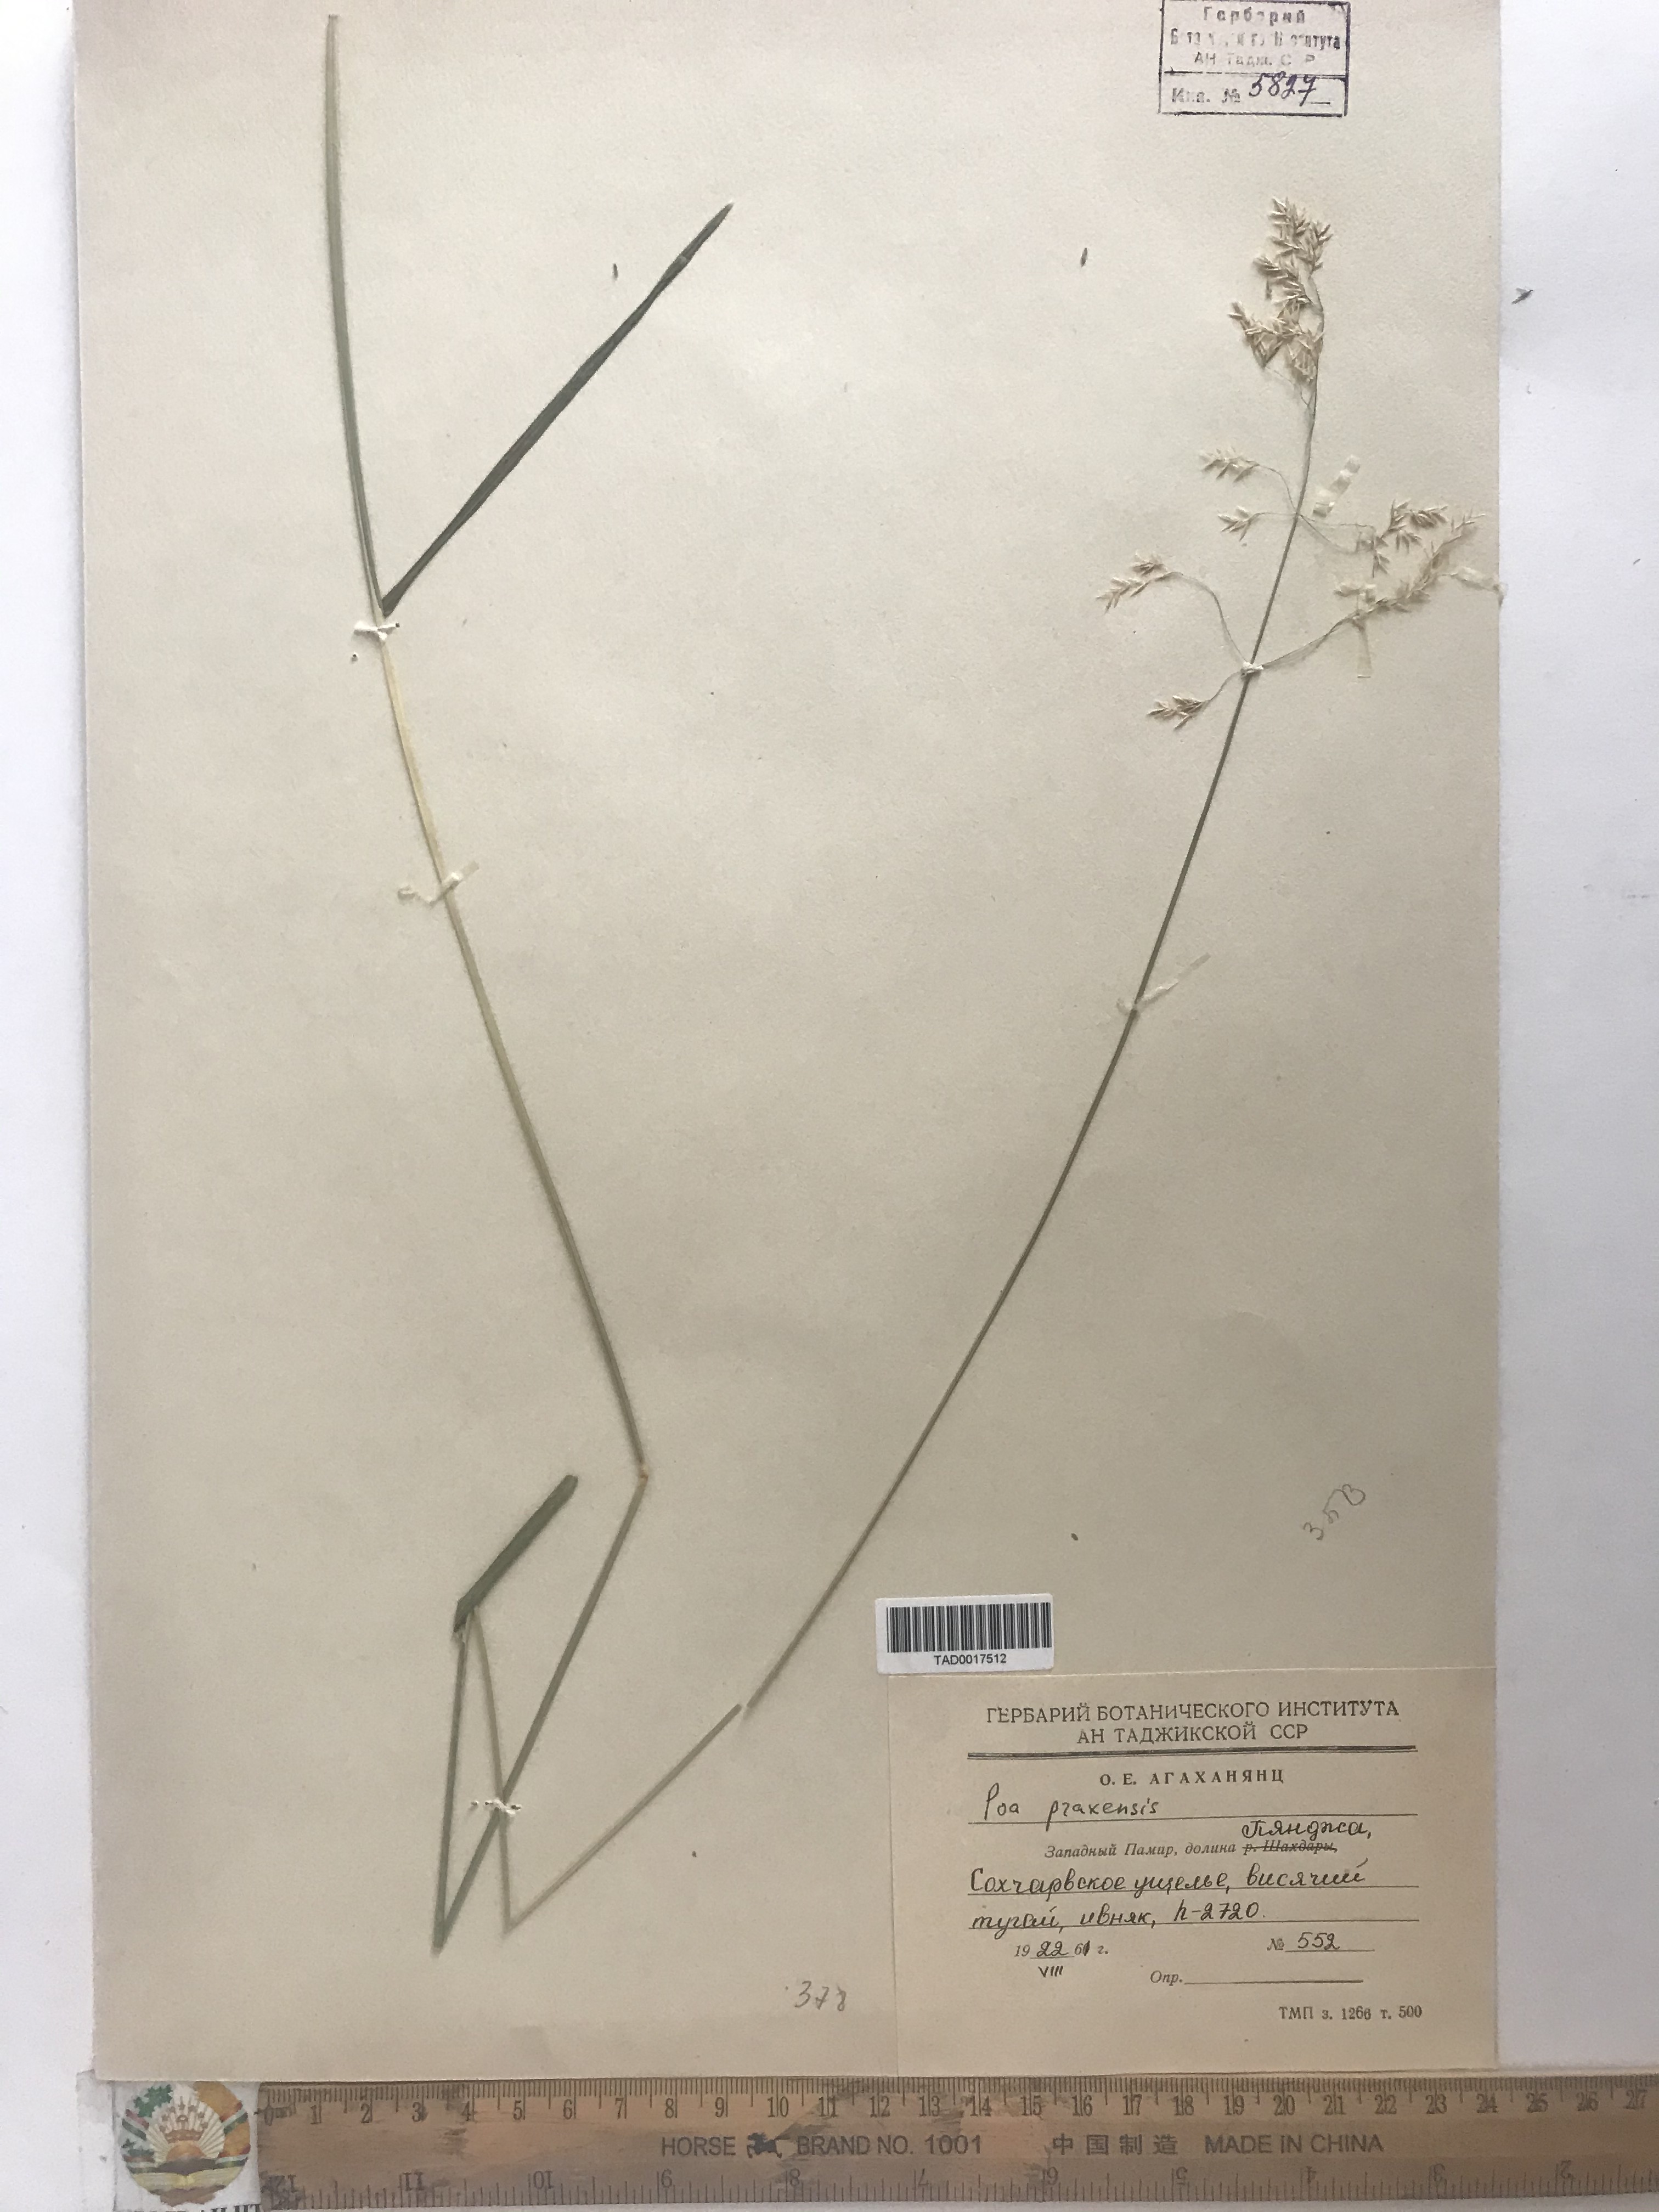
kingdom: Plantae
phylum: Tracheophyta
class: Liliopsida
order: Poales
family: Poaceae
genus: Poa
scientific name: Poa pratensis
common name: Kentucky bluegrass
